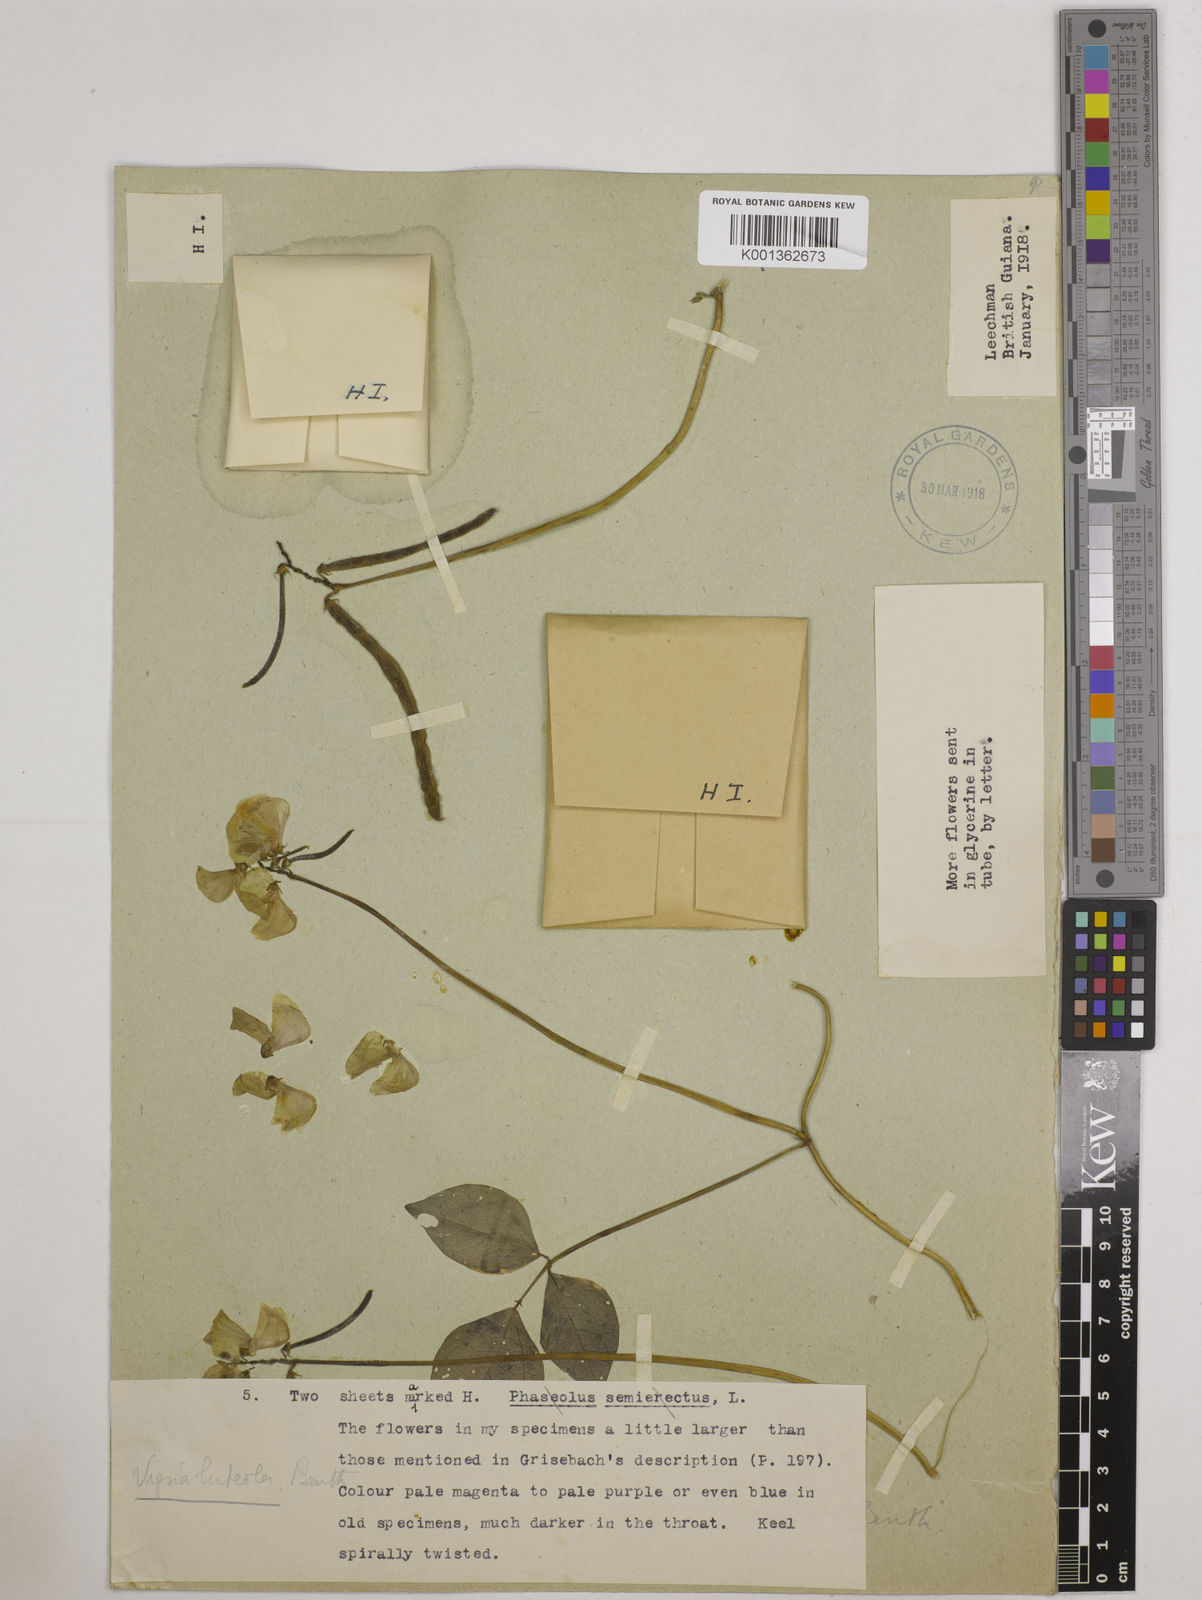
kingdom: Plantae
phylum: Tracheophyta
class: Magnoliopsida
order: Fabales
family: Fabaceae
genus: Vigna
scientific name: Vigna luteola
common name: Hairypod cowpea
